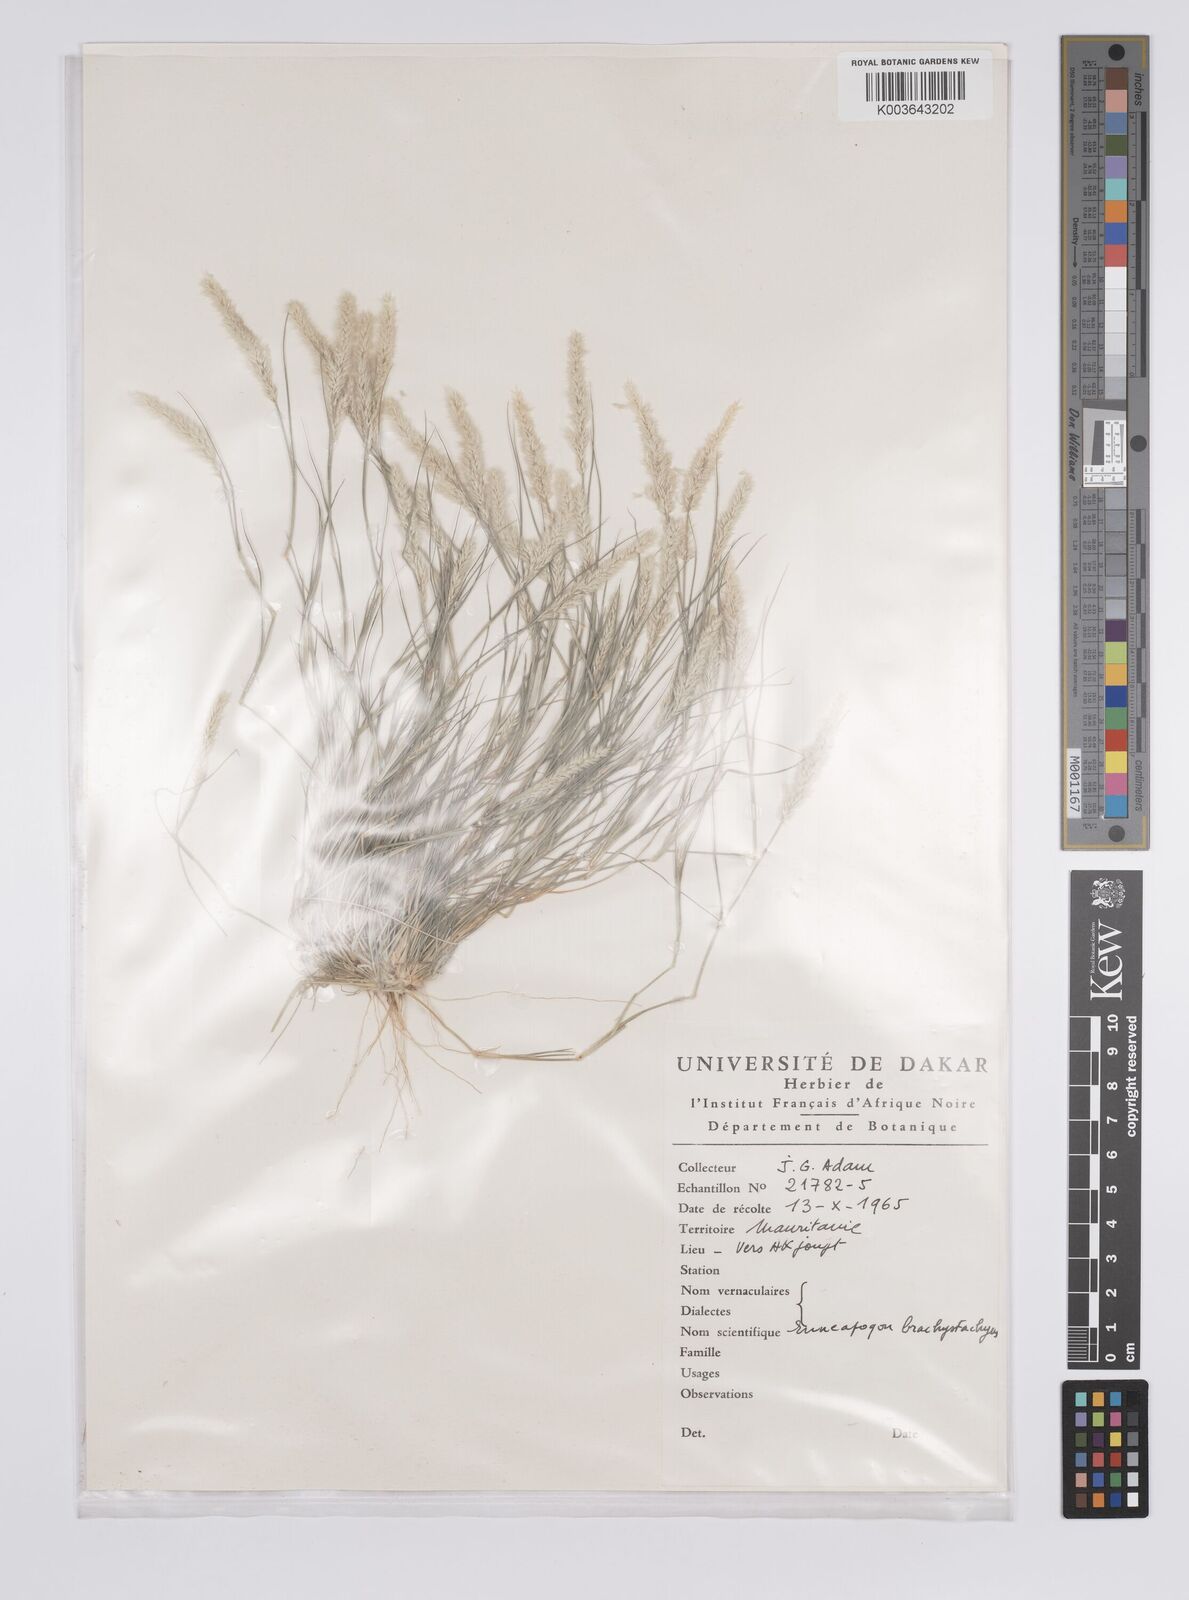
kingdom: Plantae
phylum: Tracheophyta
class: Liliopsida
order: Poales
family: Poaceae
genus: Enneapogon
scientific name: Enneapogon desvauxii
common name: Feather pappus grass
